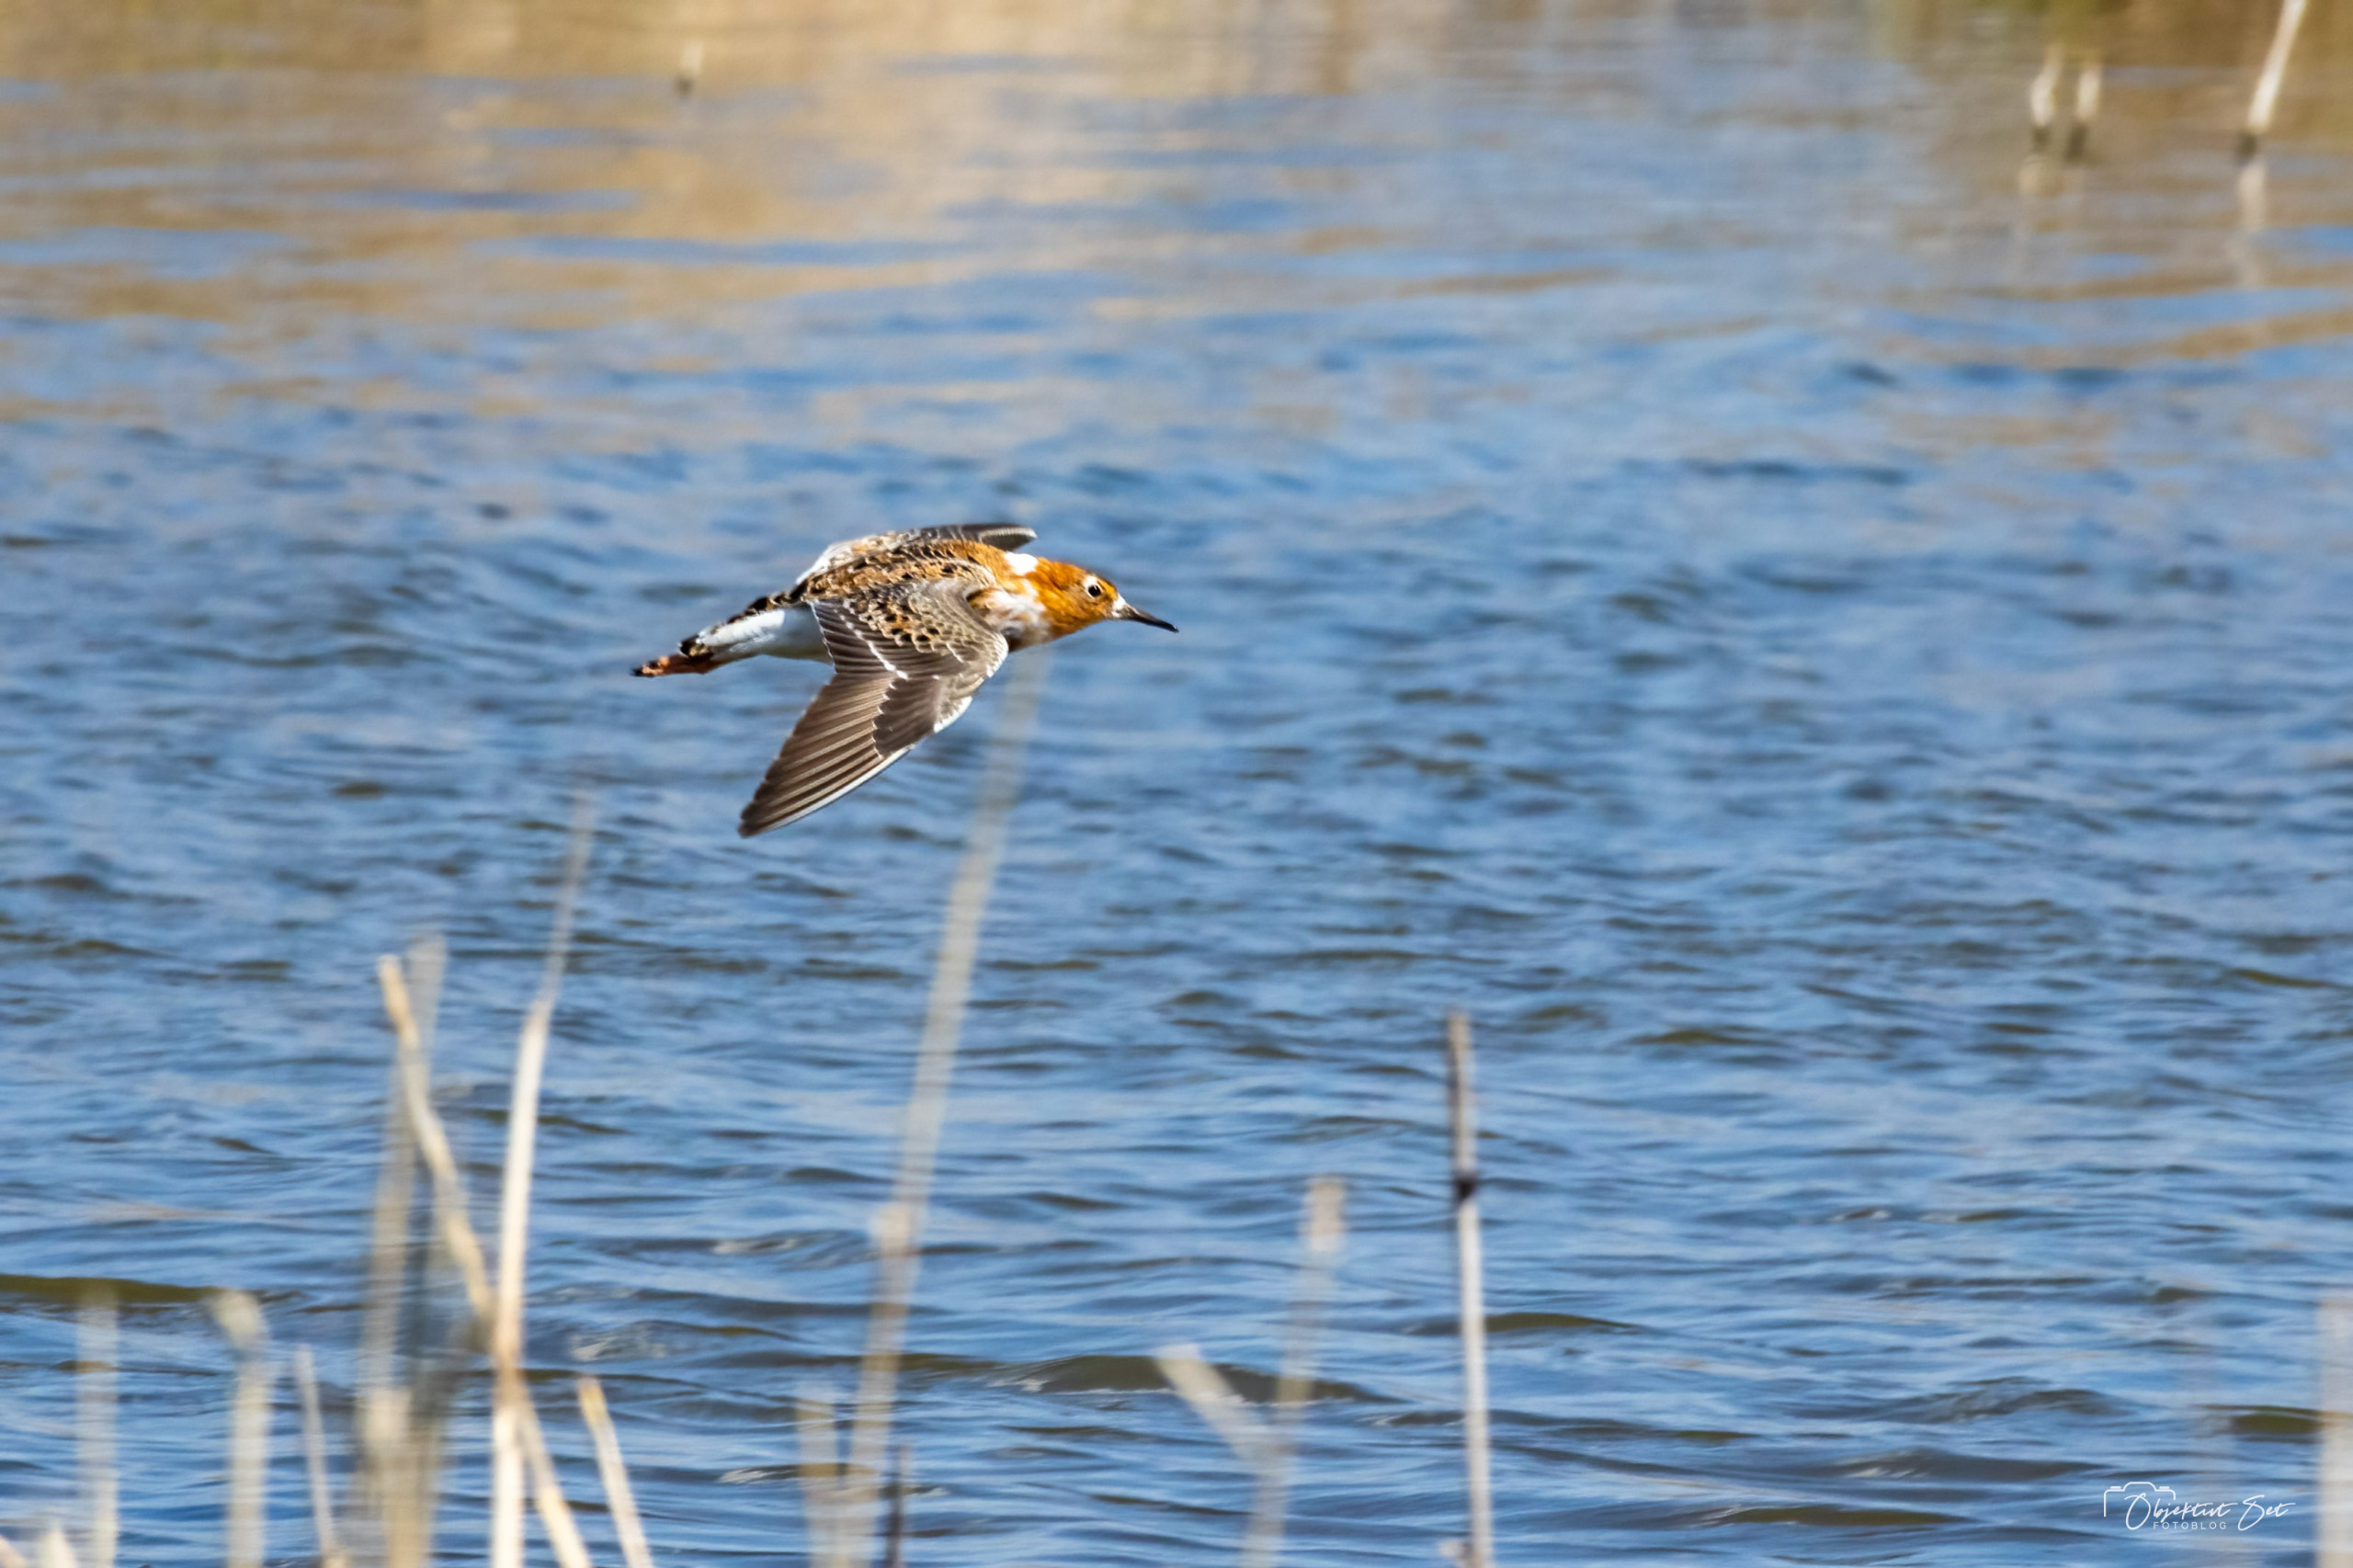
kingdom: Animalia
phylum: Chordata
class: Aves
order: Charadriiformes
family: Scolopacidae
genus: Calidris
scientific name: Calidris pugnax
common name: Brushane
